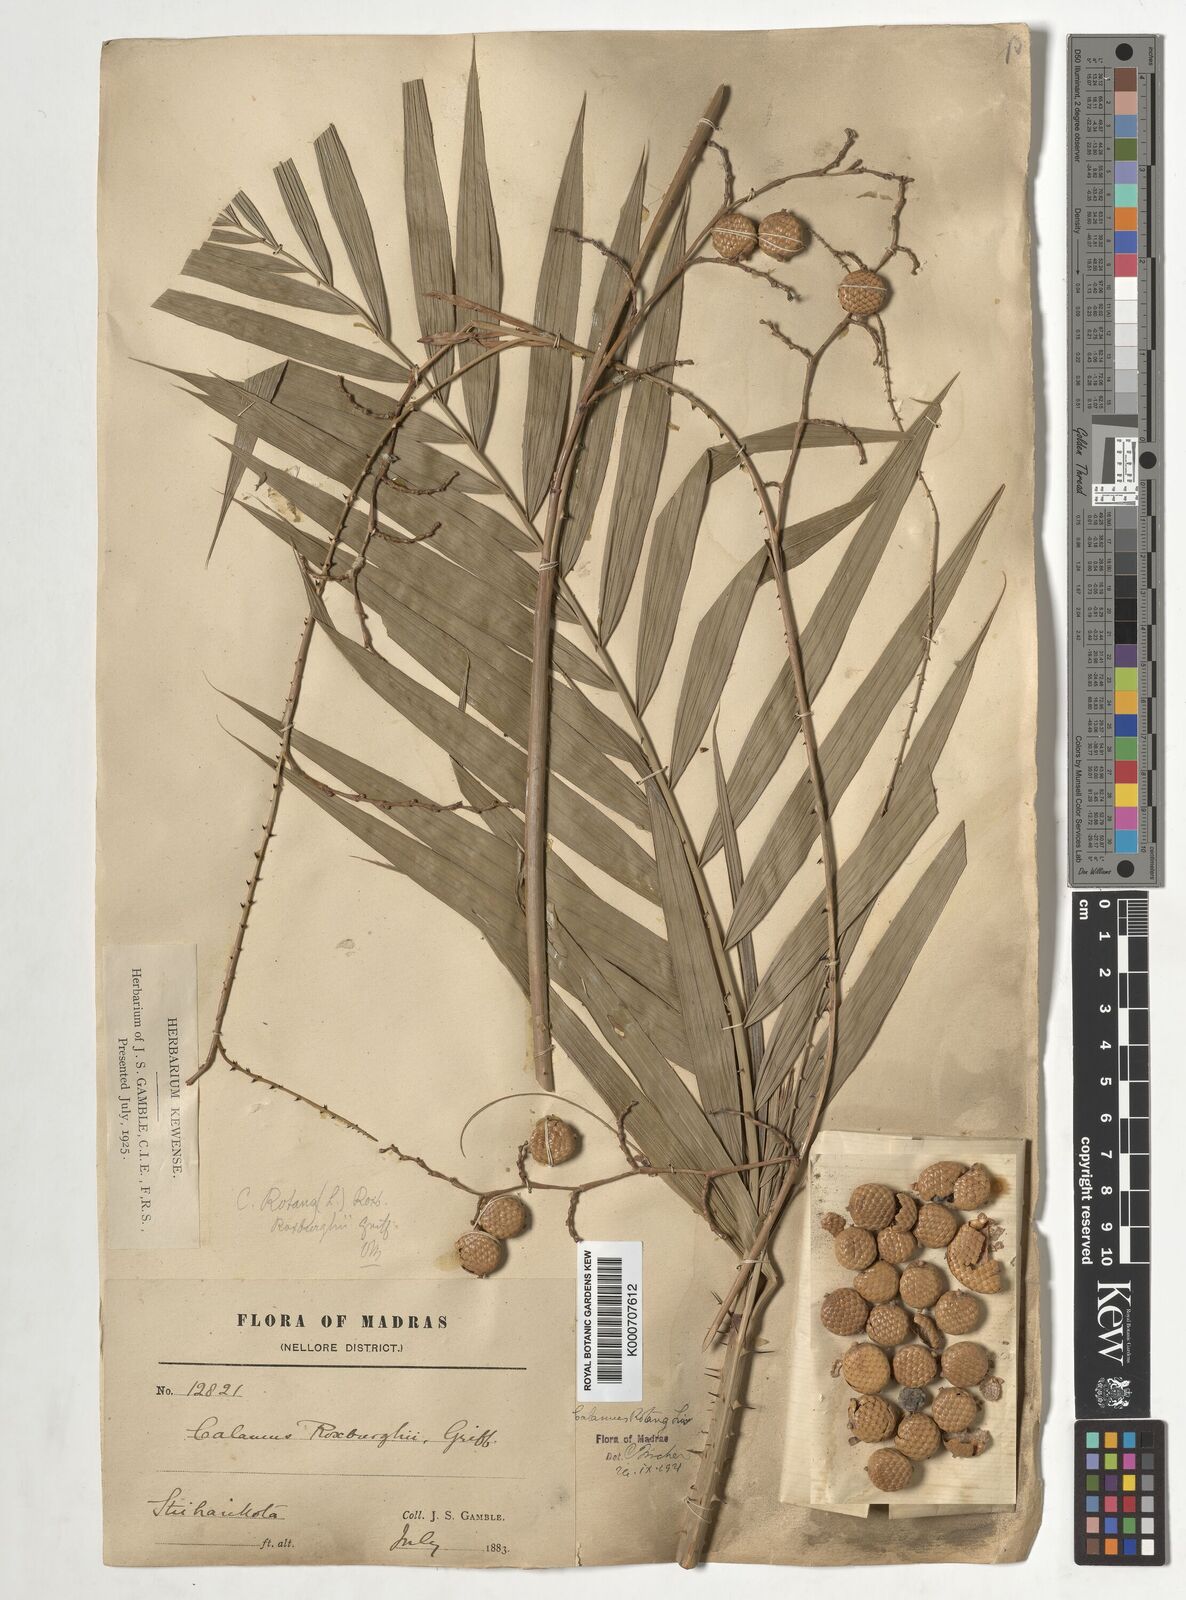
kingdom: Plantae
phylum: Tracheophyta
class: Liliopsida
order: Arecales
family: Arecaceae
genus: Calamus
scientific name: Calamus rotang
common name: Rattan cane
